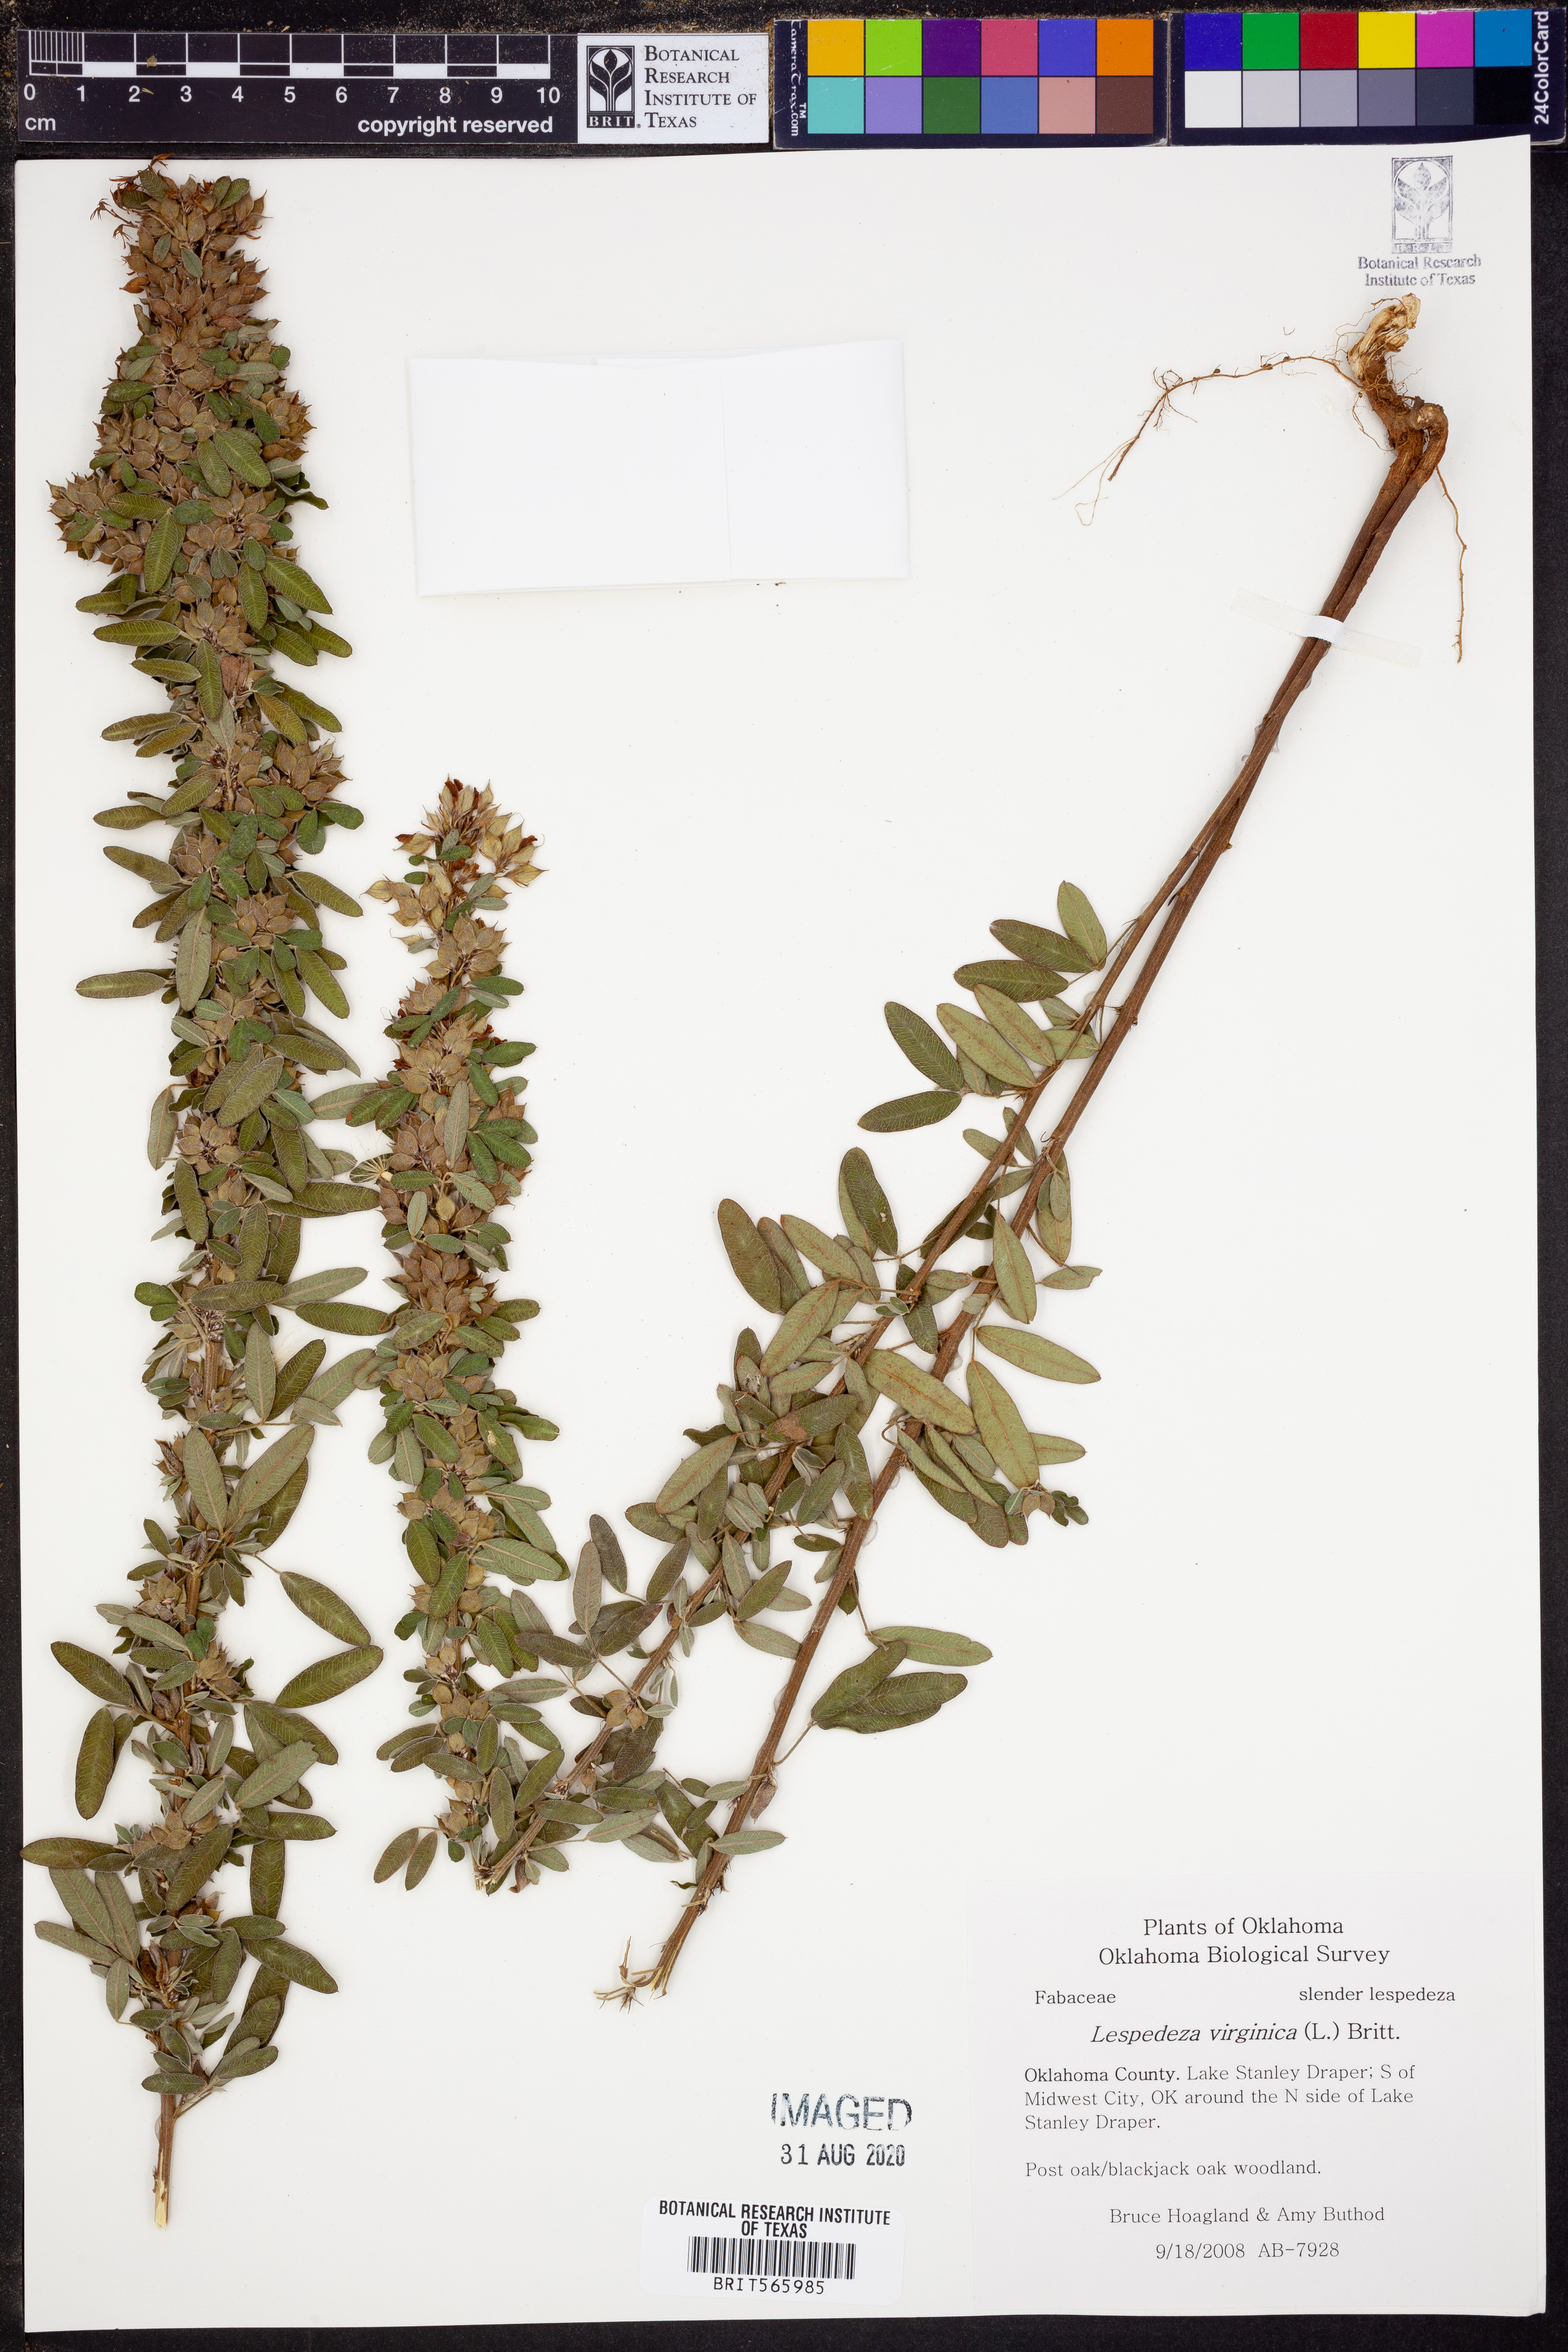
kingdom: Plantae
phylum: Tracheophyta
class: Magnoliopsida
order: Fabales
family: Fabaceae
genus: Lespedeza
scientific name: Lespedeza virginica
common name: Slender bush-clover
